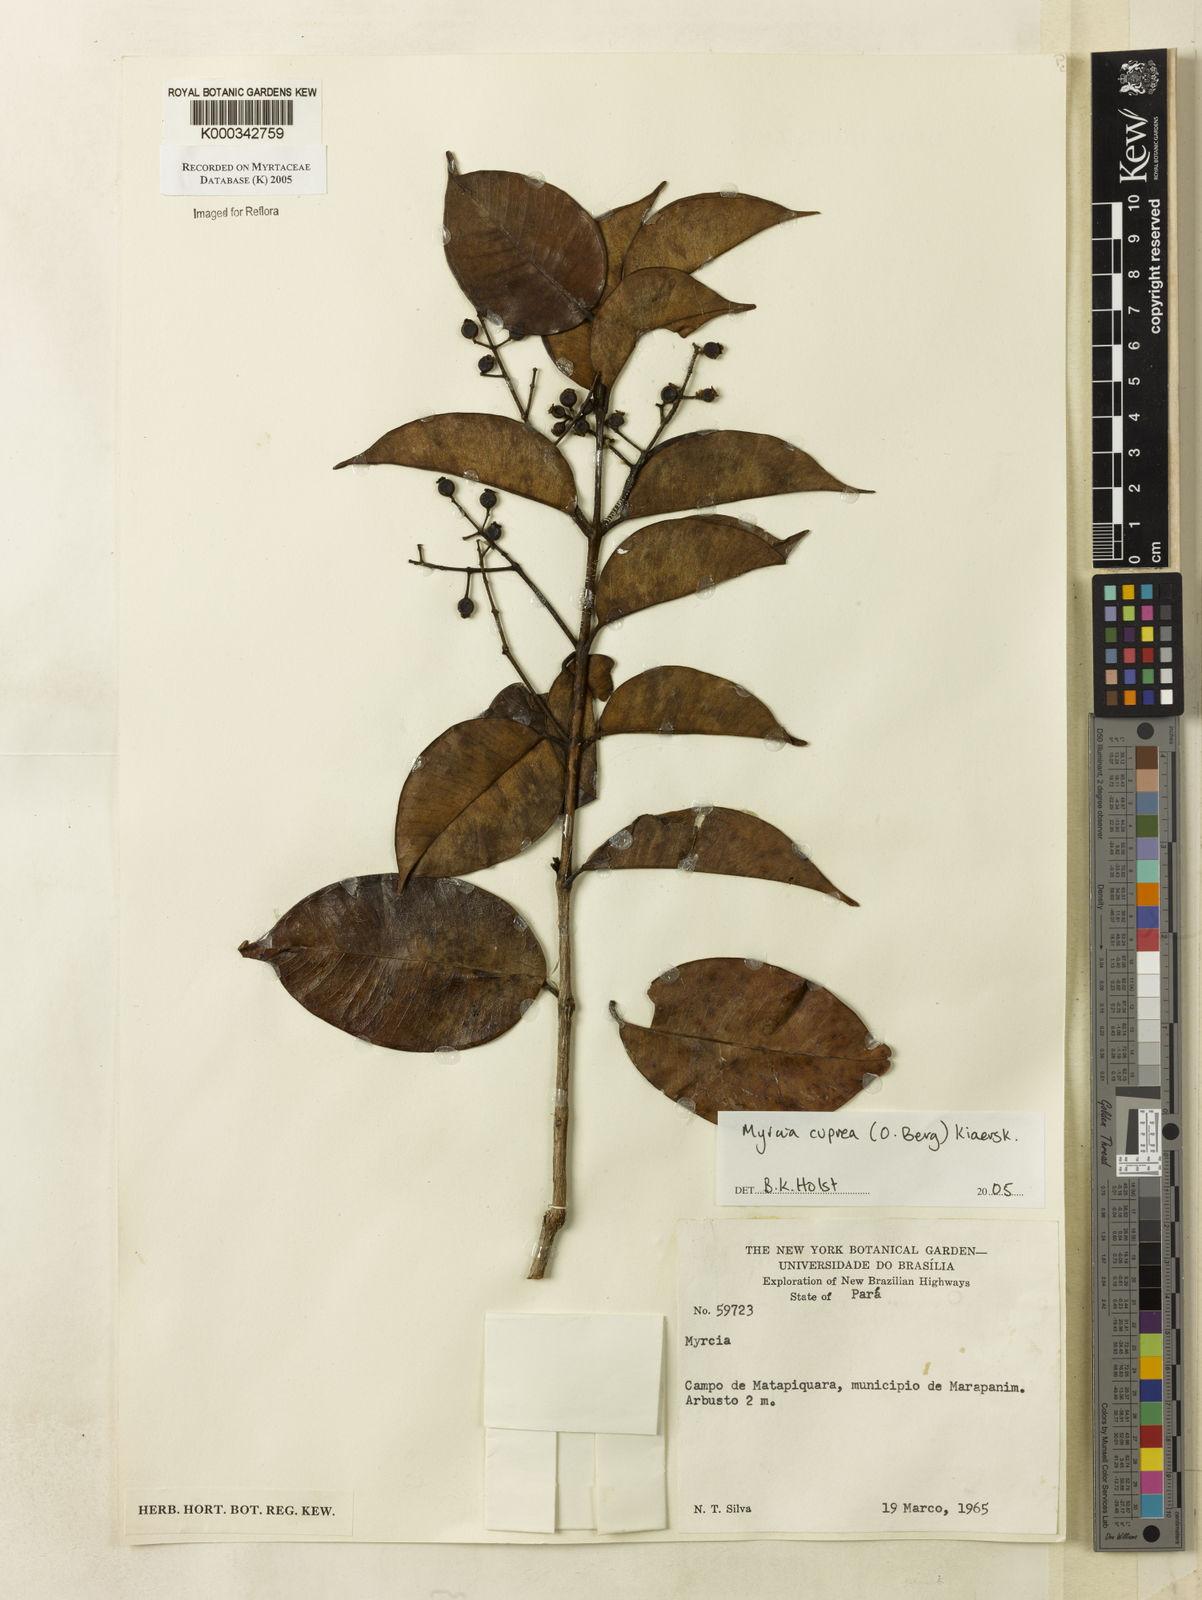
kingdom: Plantae
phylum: Tracheophyta
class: Magnoliopsida
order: Myrtales
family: Myrtaceae
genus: Myrcia
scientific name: Myrcia cuprea
